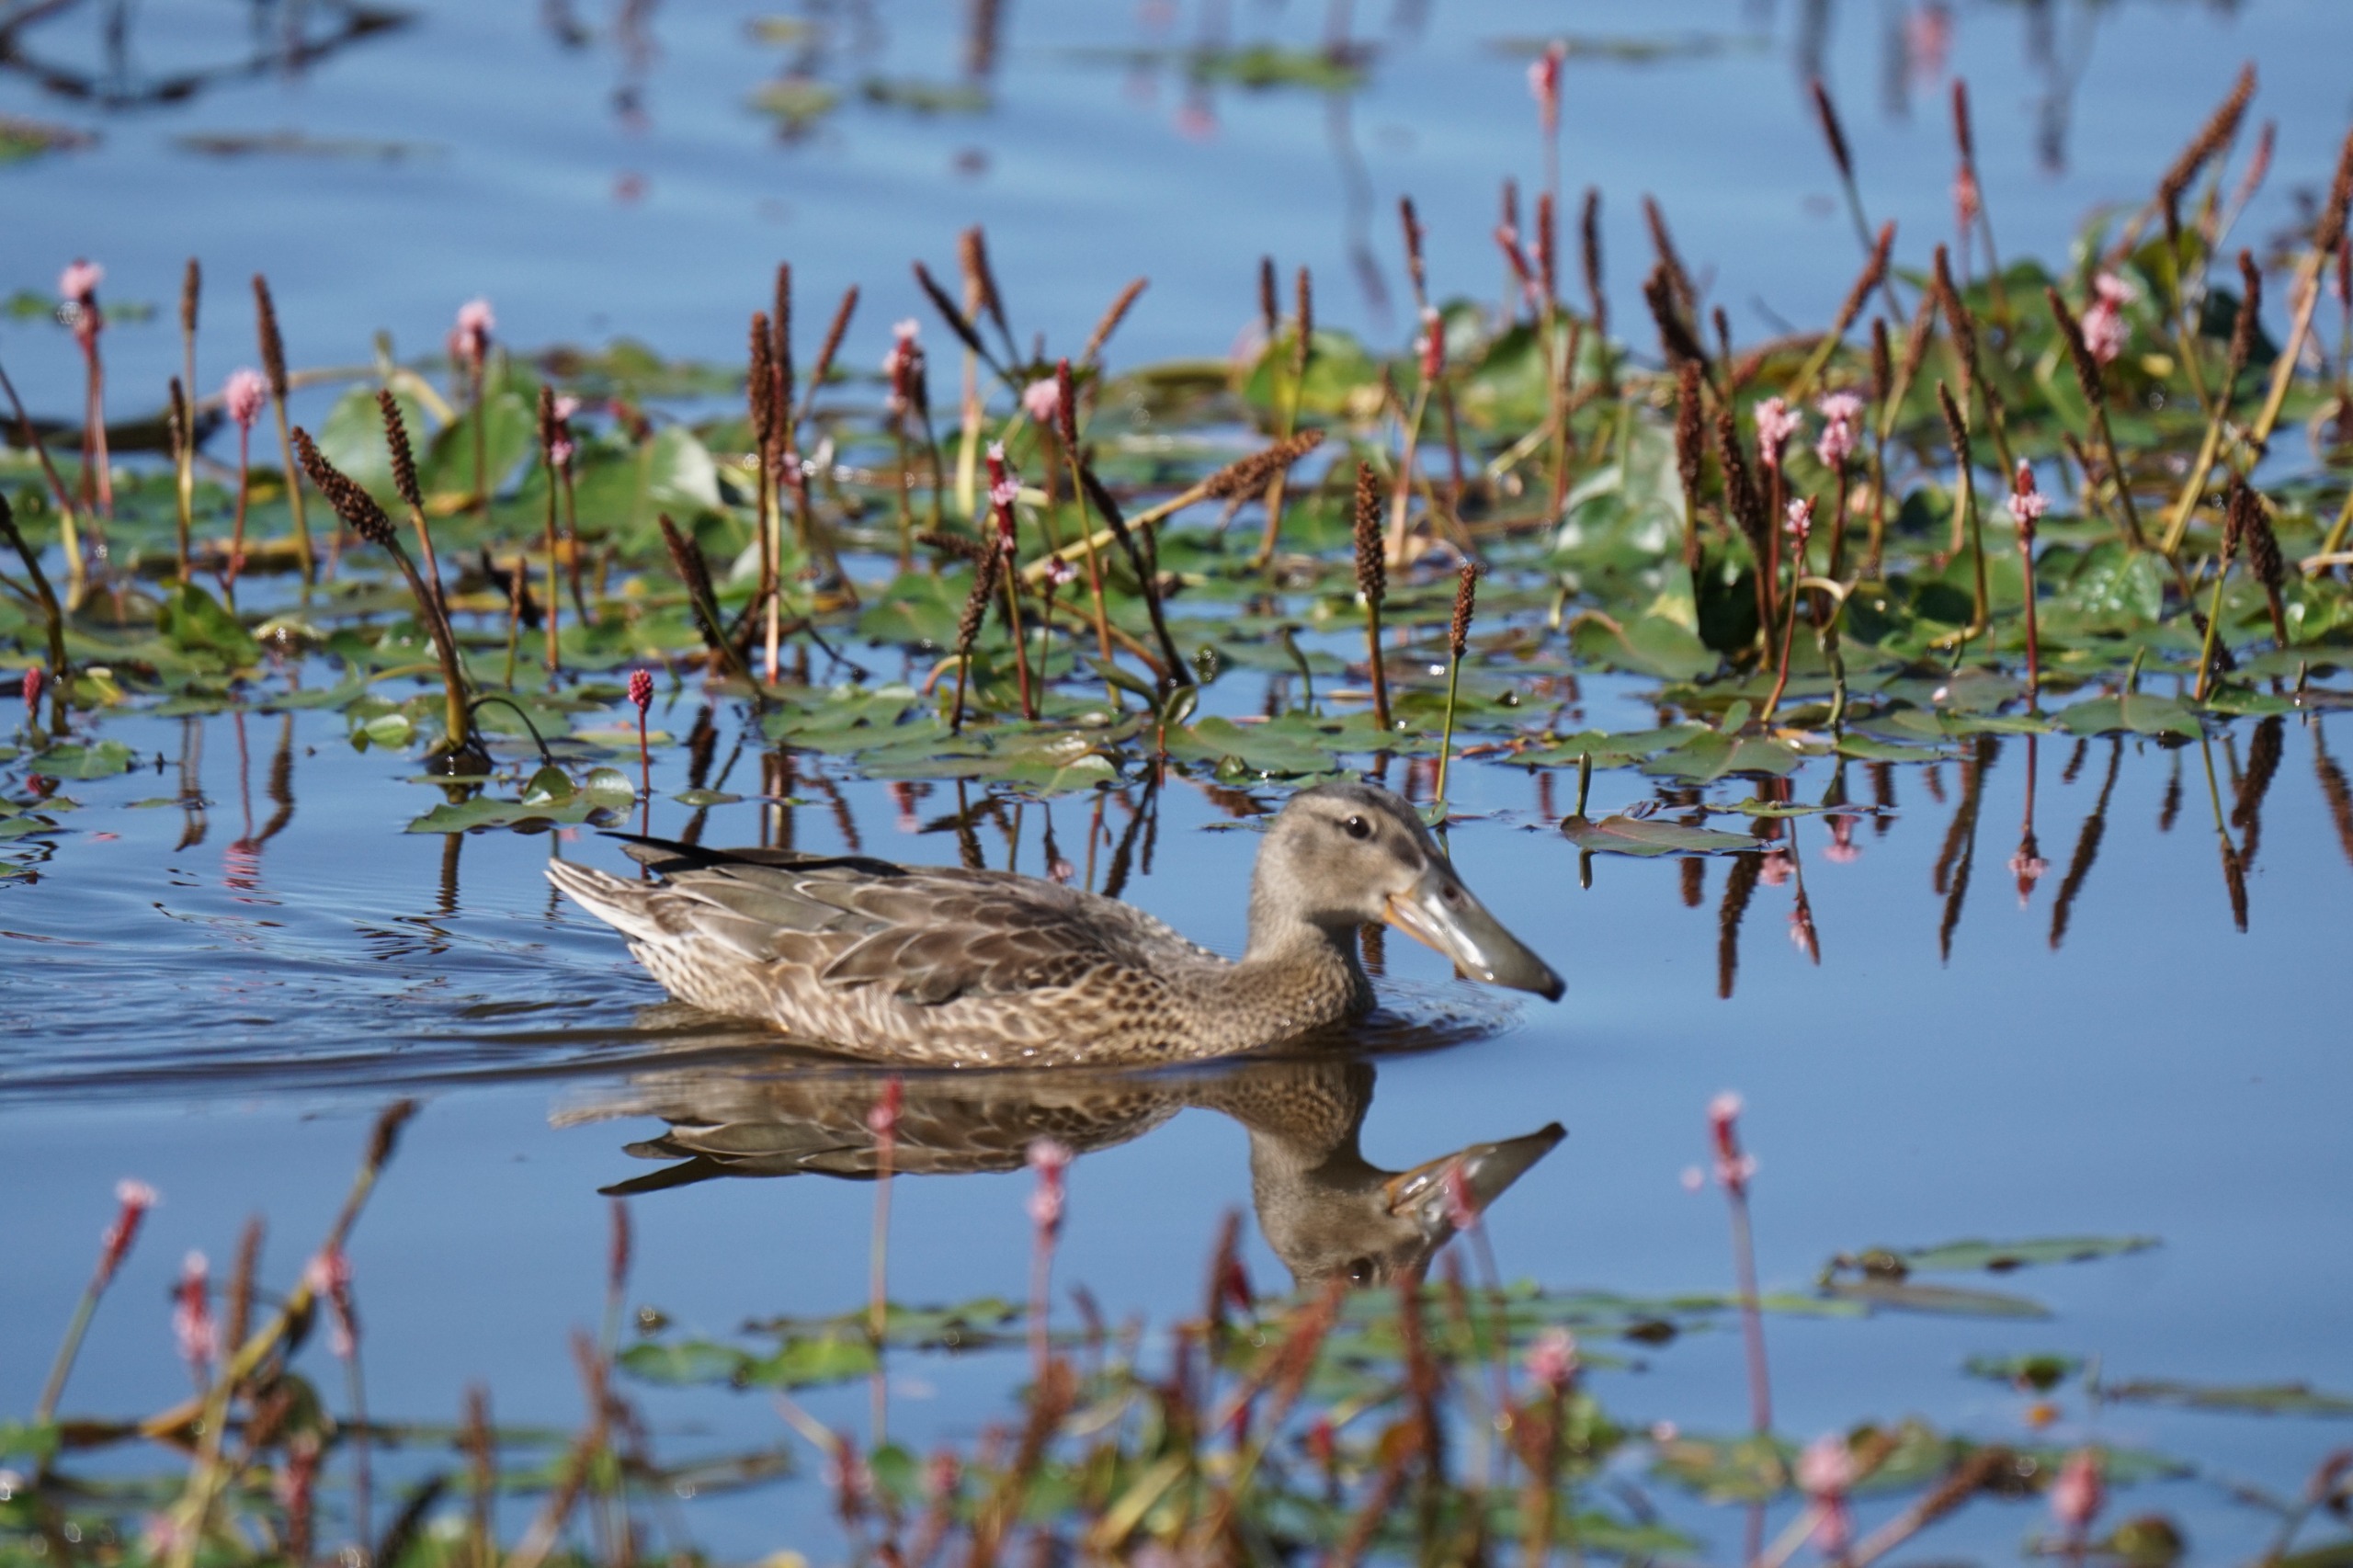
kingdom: Animalia
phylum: Chordata
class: Aves
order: Anseriformes
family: Anatidae
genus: Spatula
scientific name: Spatula clypeata
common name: Skeand
